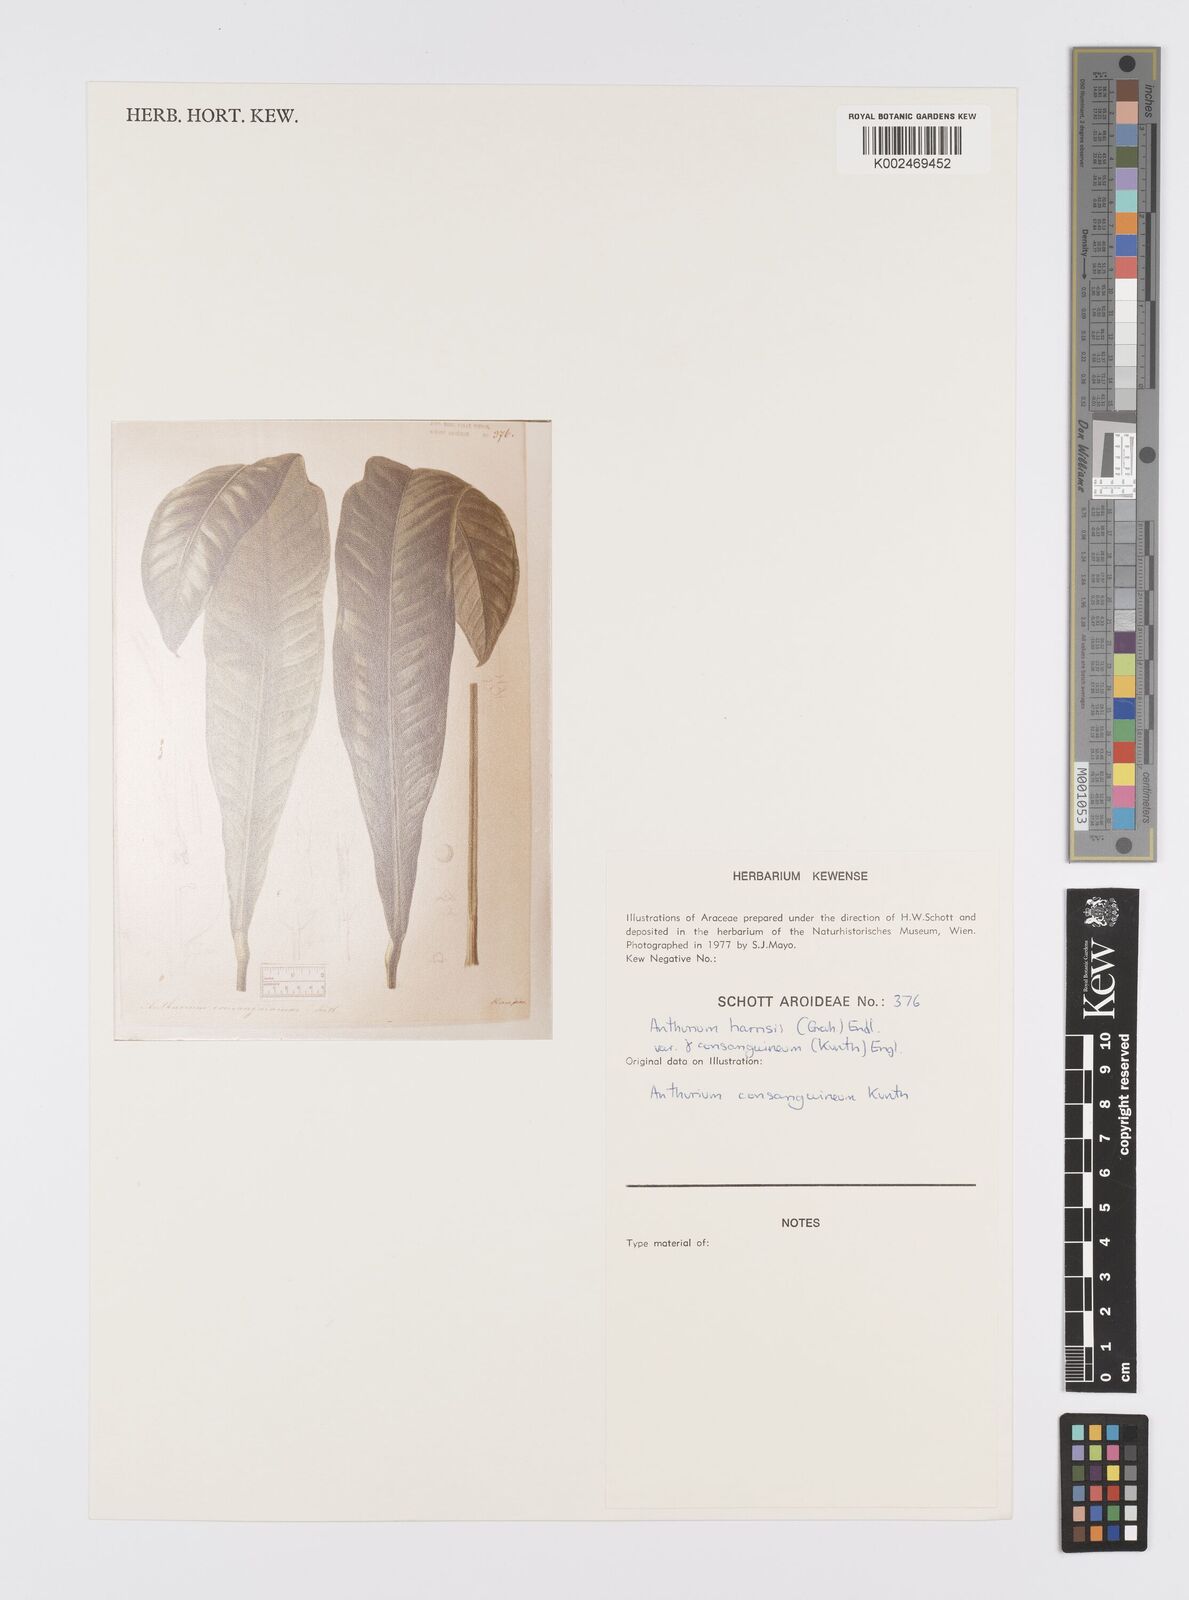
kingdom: Plantae
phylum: Tracheophyta
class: Liliopsida
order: Alismatales
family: Araceae
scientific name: Araceae
